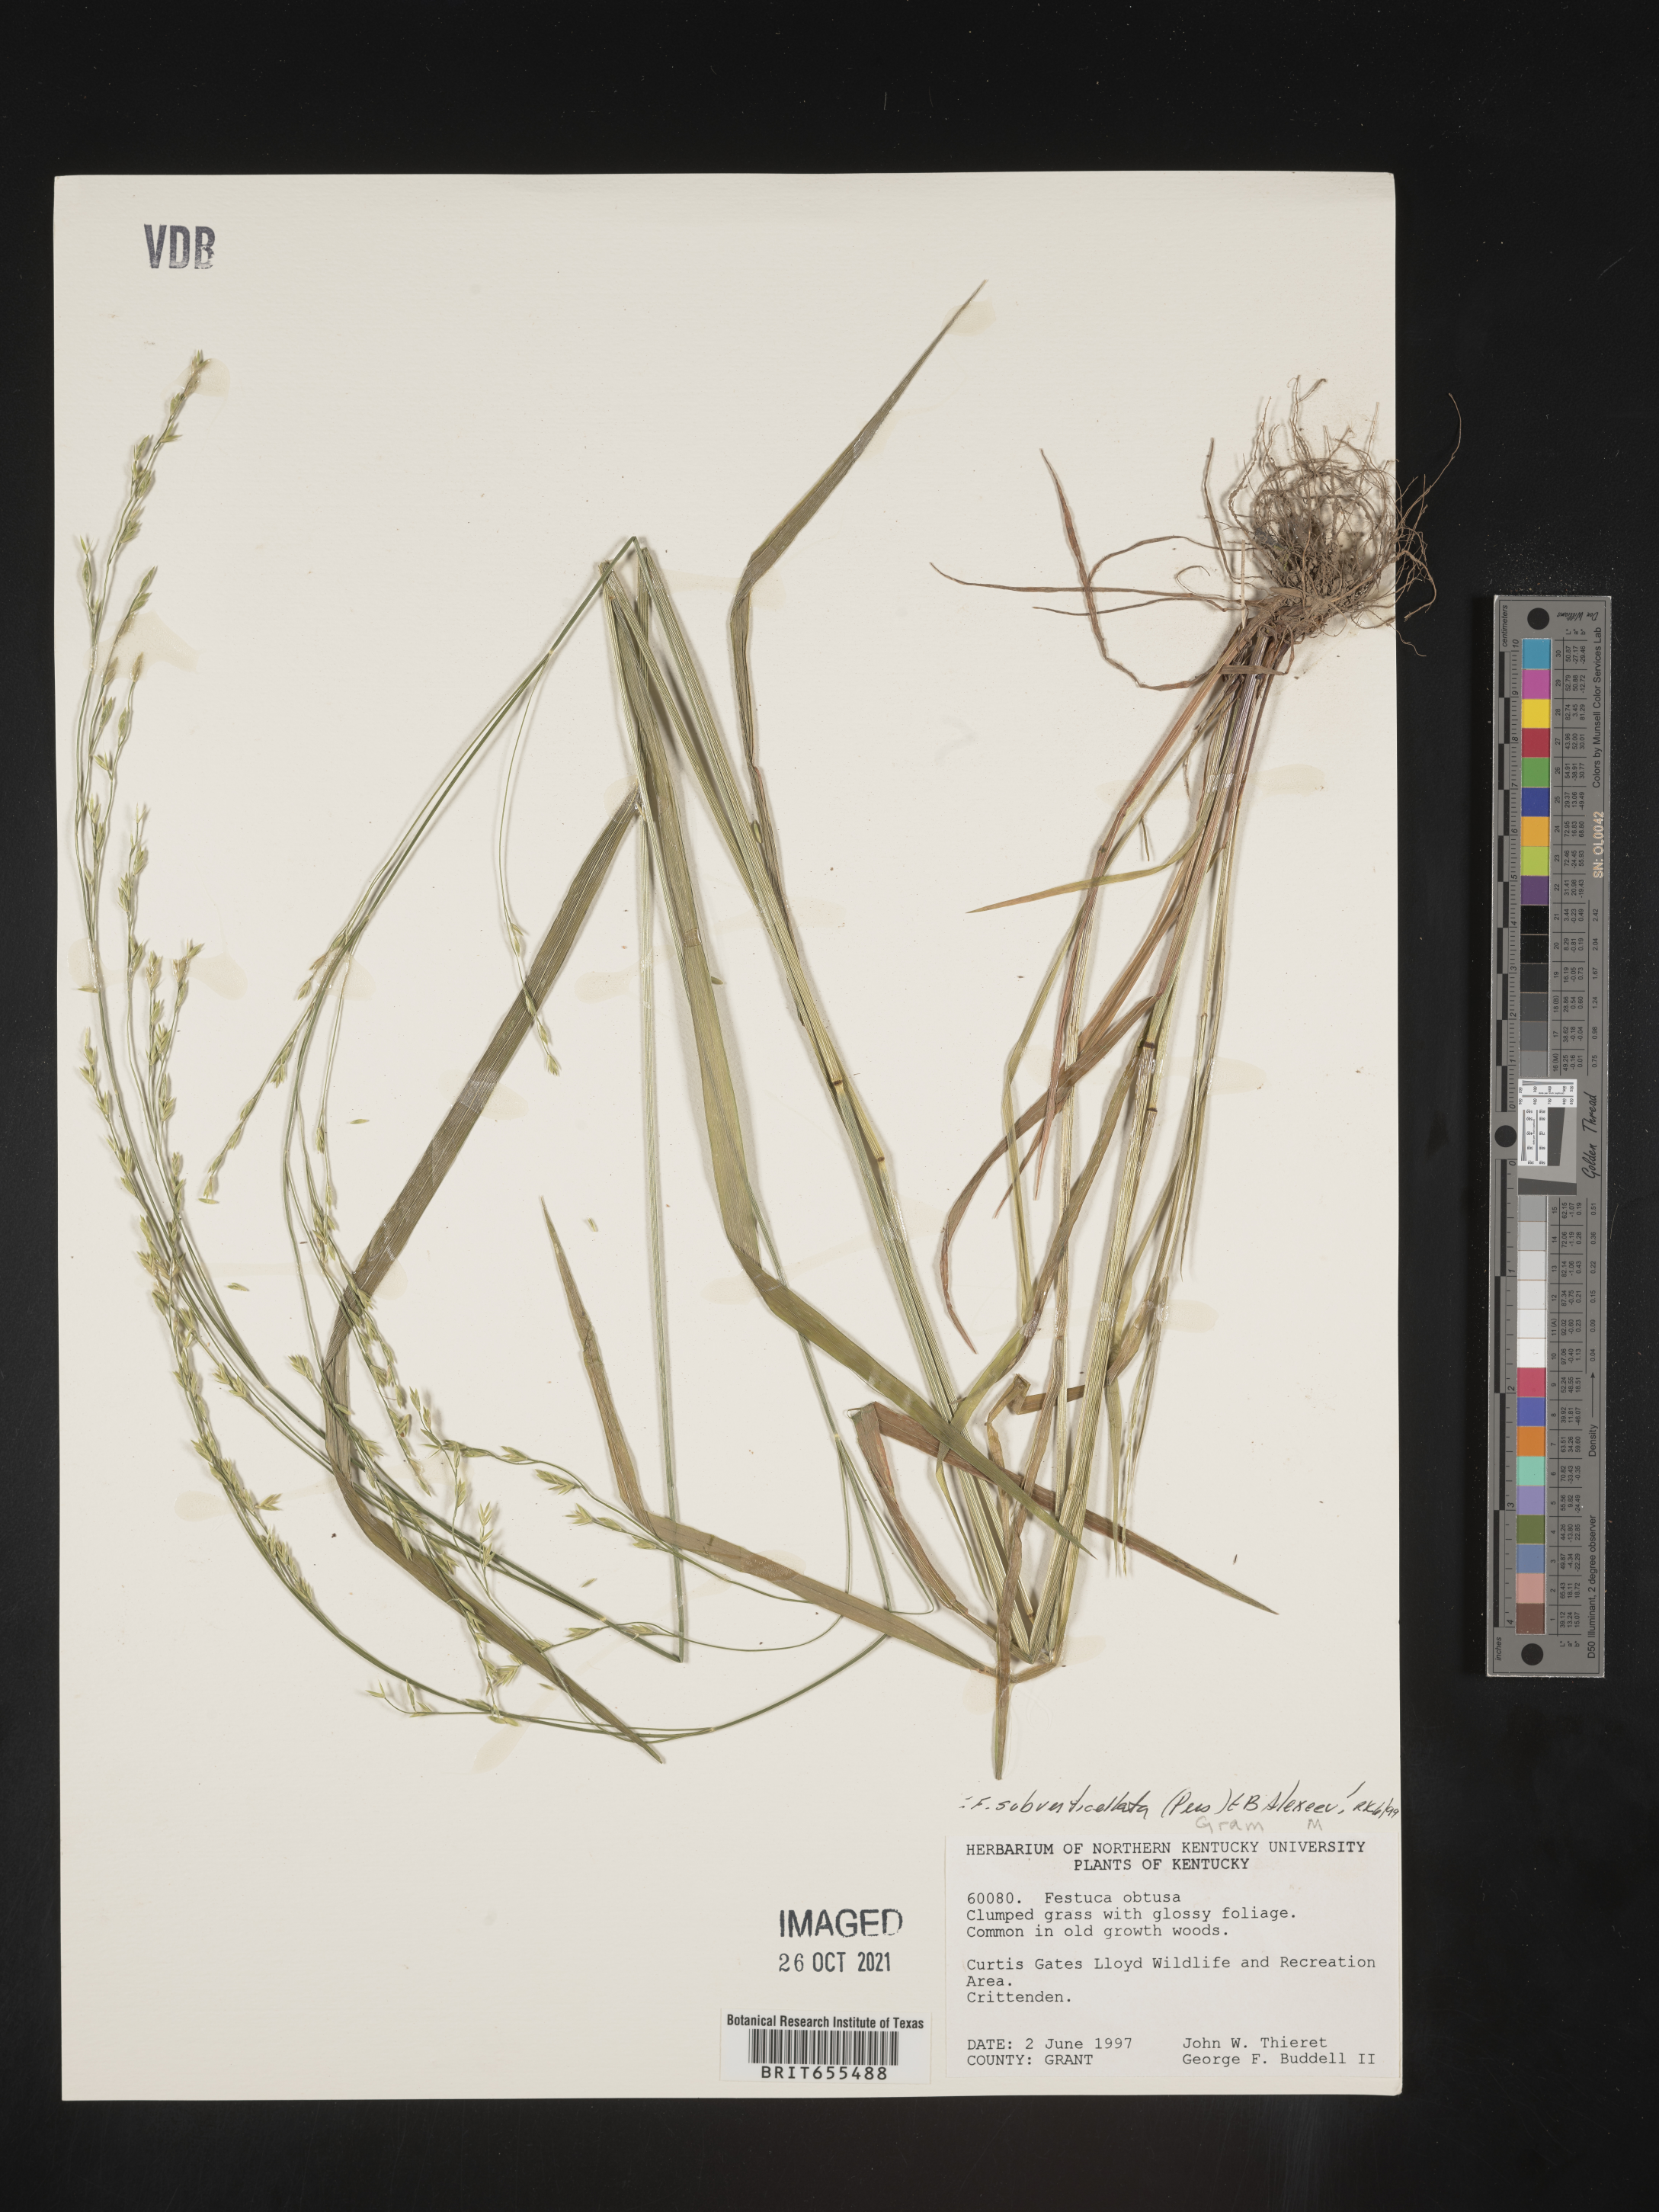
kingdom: Plantae
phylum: Tracheophyta
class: Liliopsida
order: Poales
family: Poaceae
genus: Festuca
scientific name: Festuca
